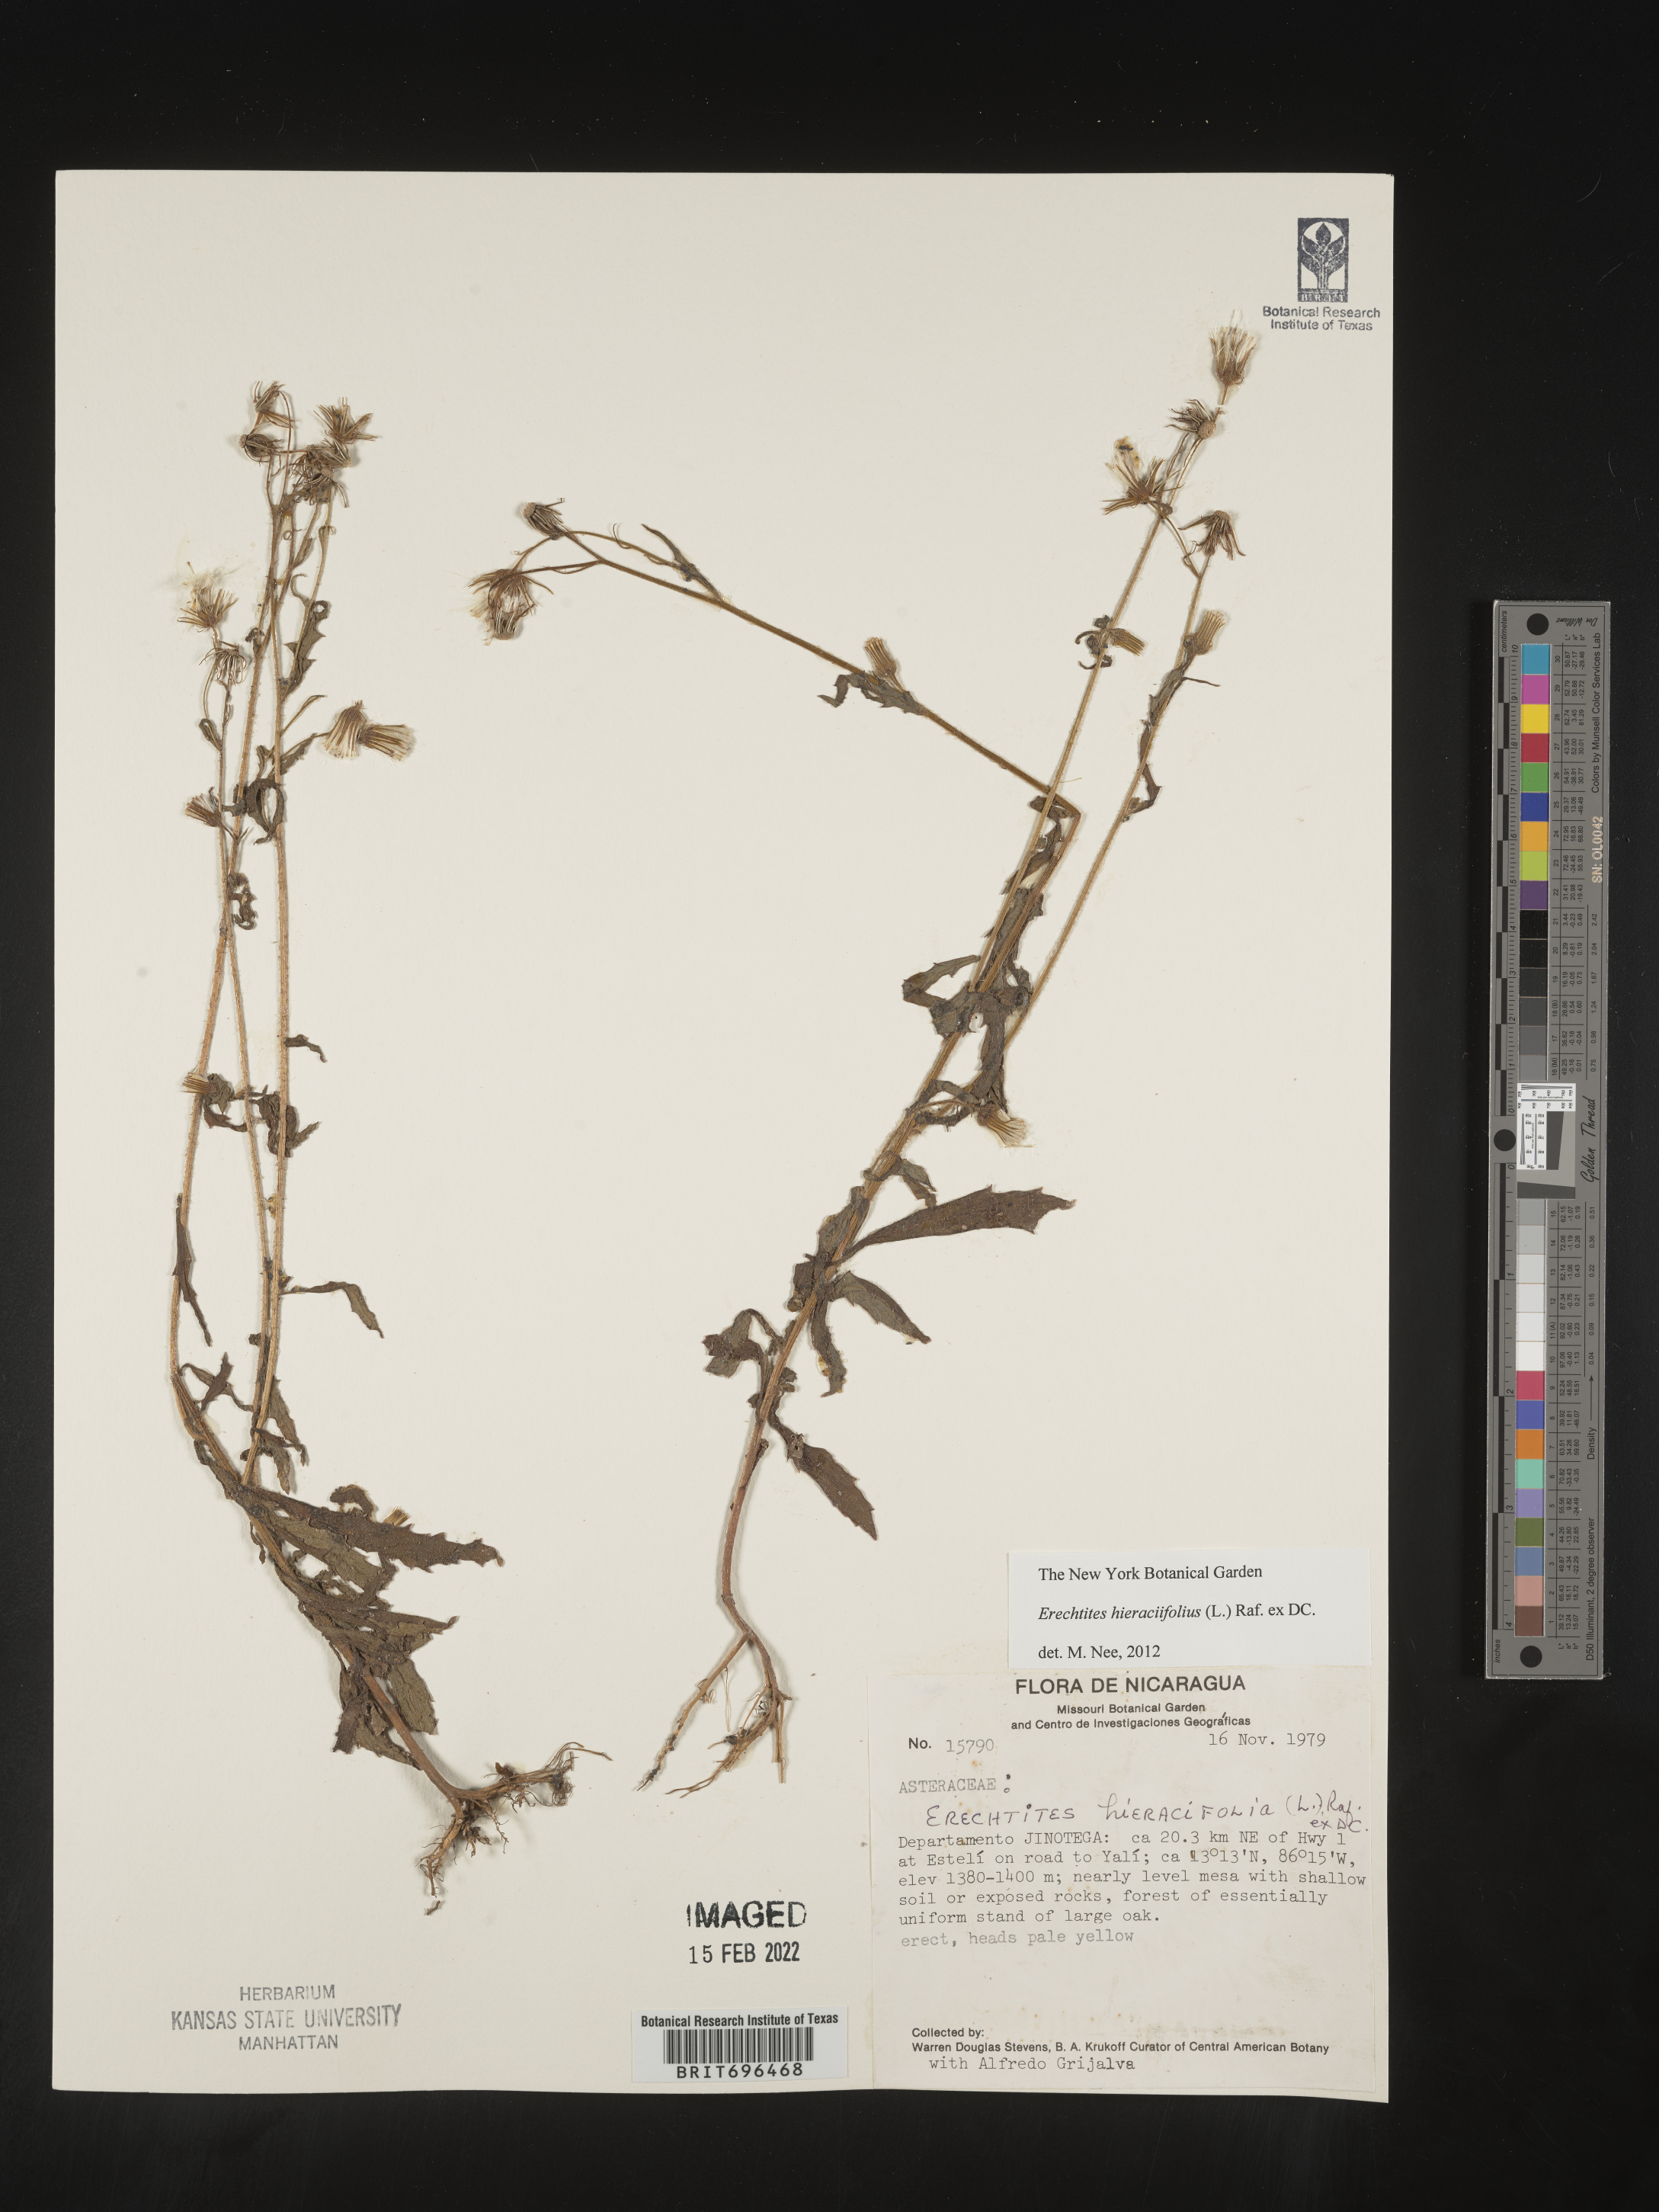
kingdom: Plantae
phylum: Tracheophyta
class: Magnoliopsida
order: Asterales
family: Asteraceae
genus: Erechtites
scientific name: Erechtites
